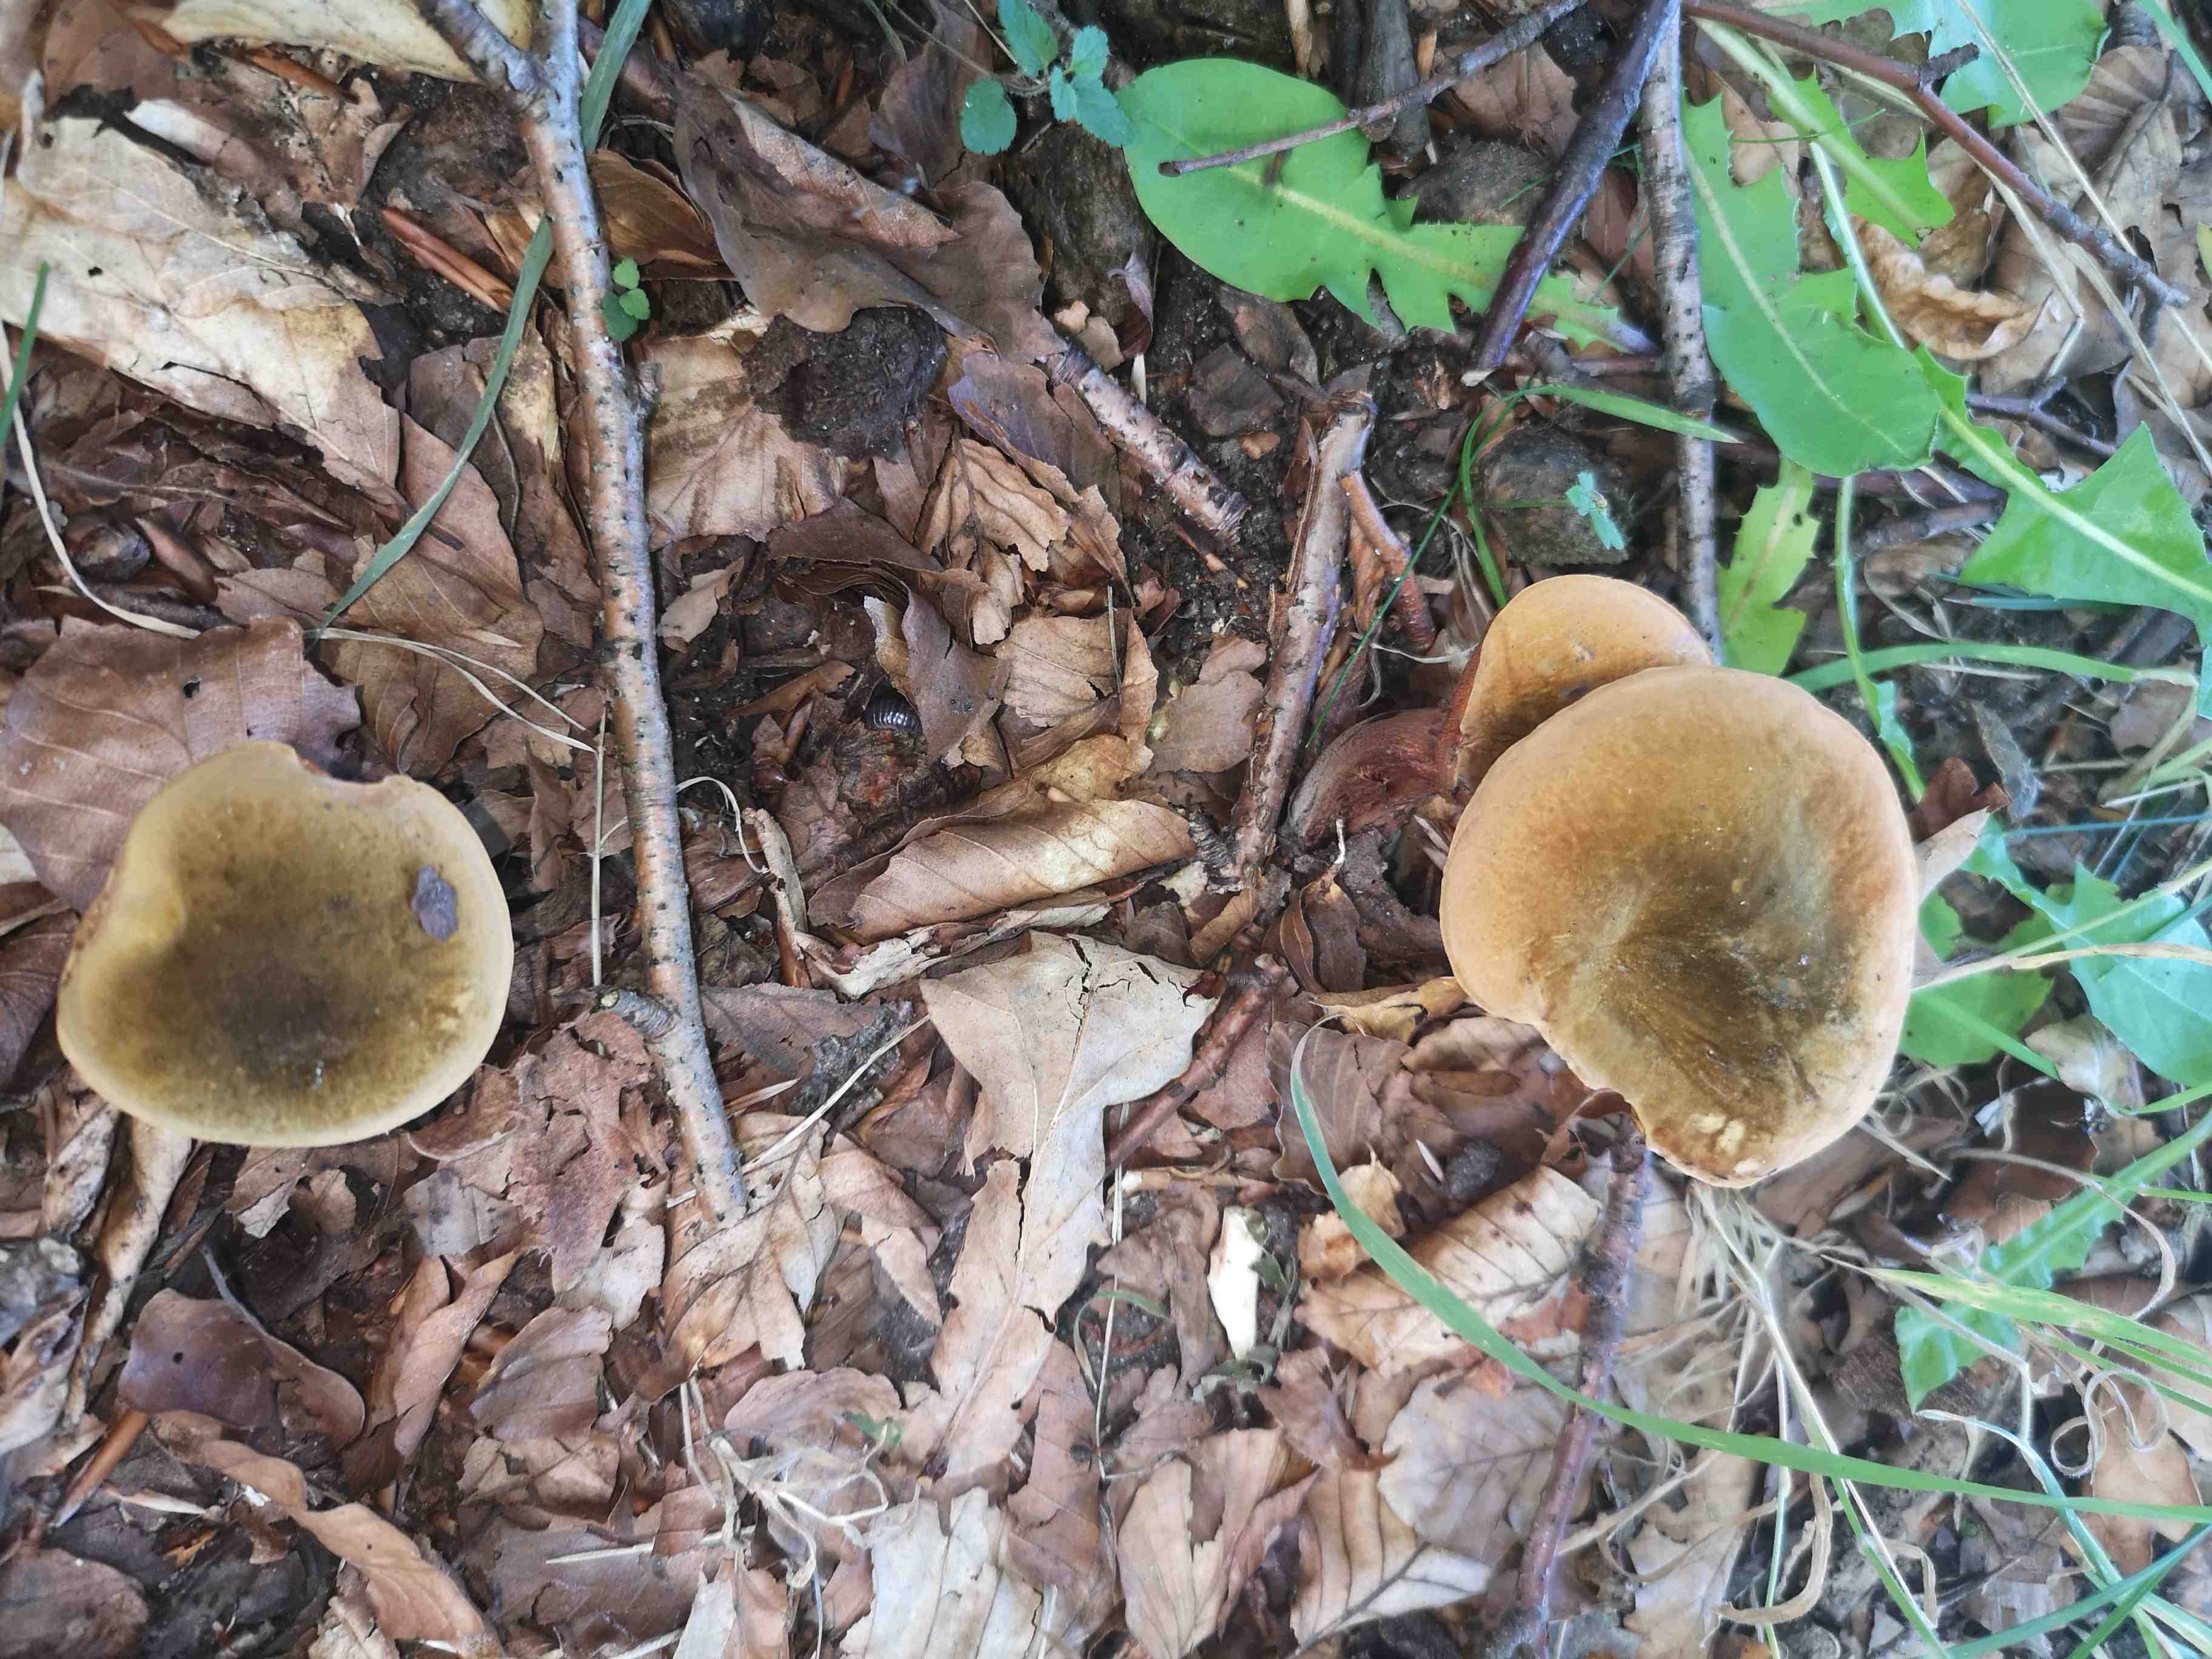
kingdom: Fungi
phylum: Basidiomycota
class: Agaricomycetes
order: Boletales
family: Boletaceae
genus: Suillellus
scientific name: Suillellus luridus
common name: netstokket indigorørhat
